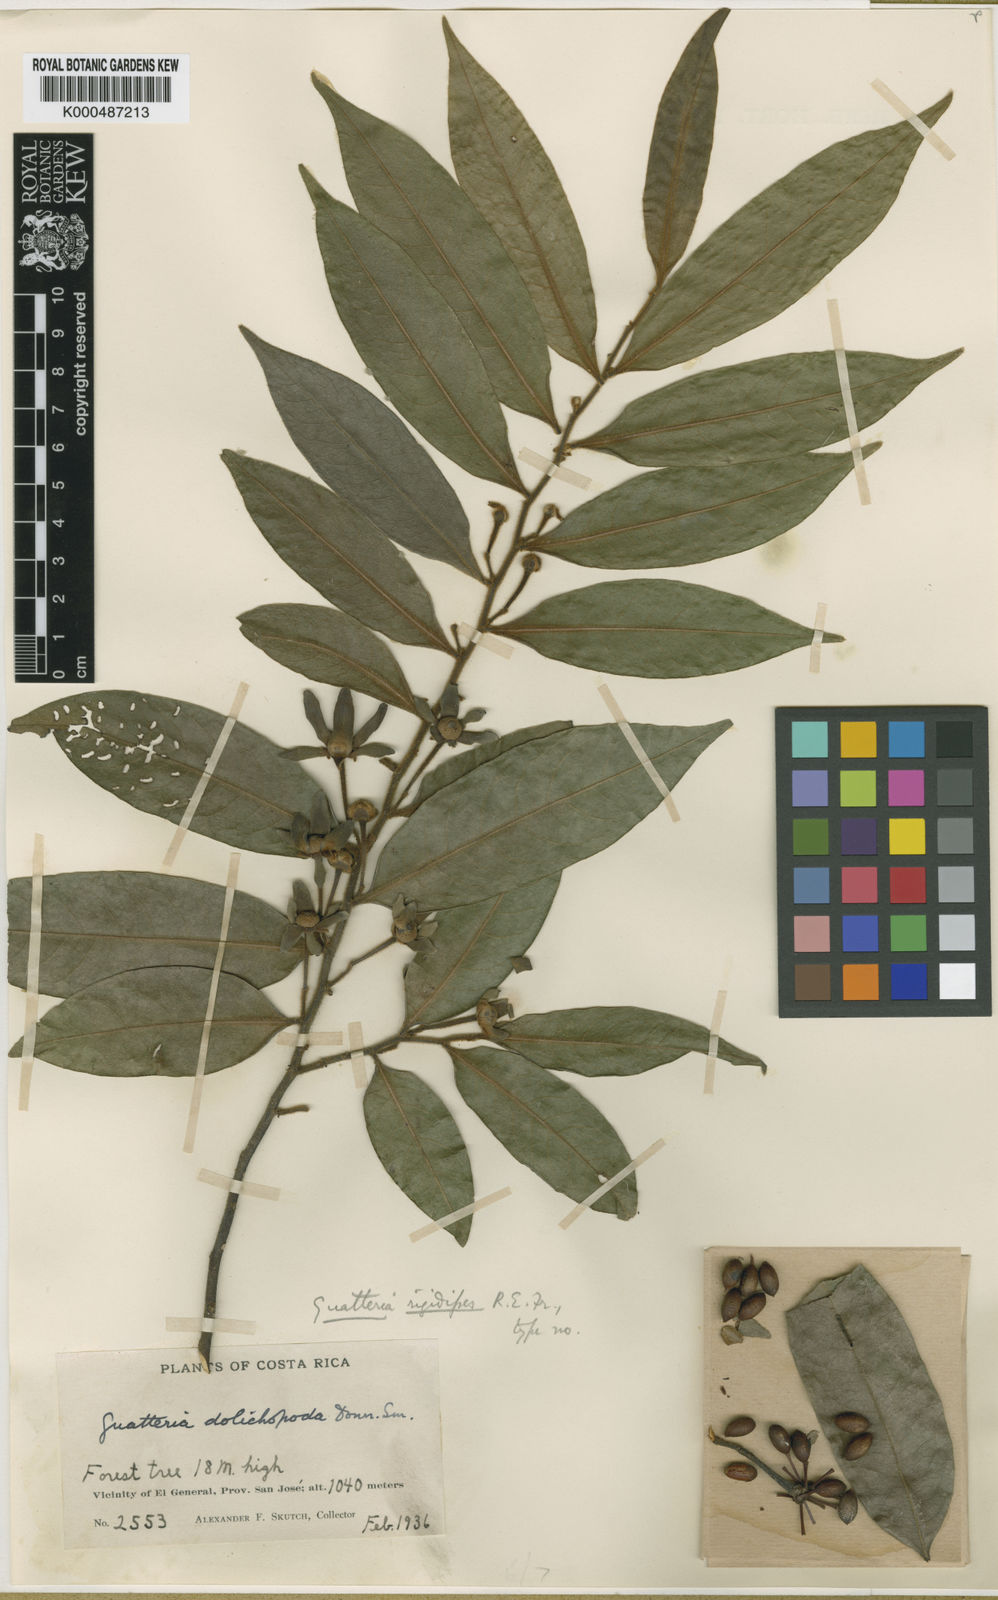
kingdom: Plantae
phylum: Tracheophyta
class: Magnoliopsida
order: Magnoliales
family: Annonaceae
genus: Guatteria
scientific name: Guatteria tomentosa
